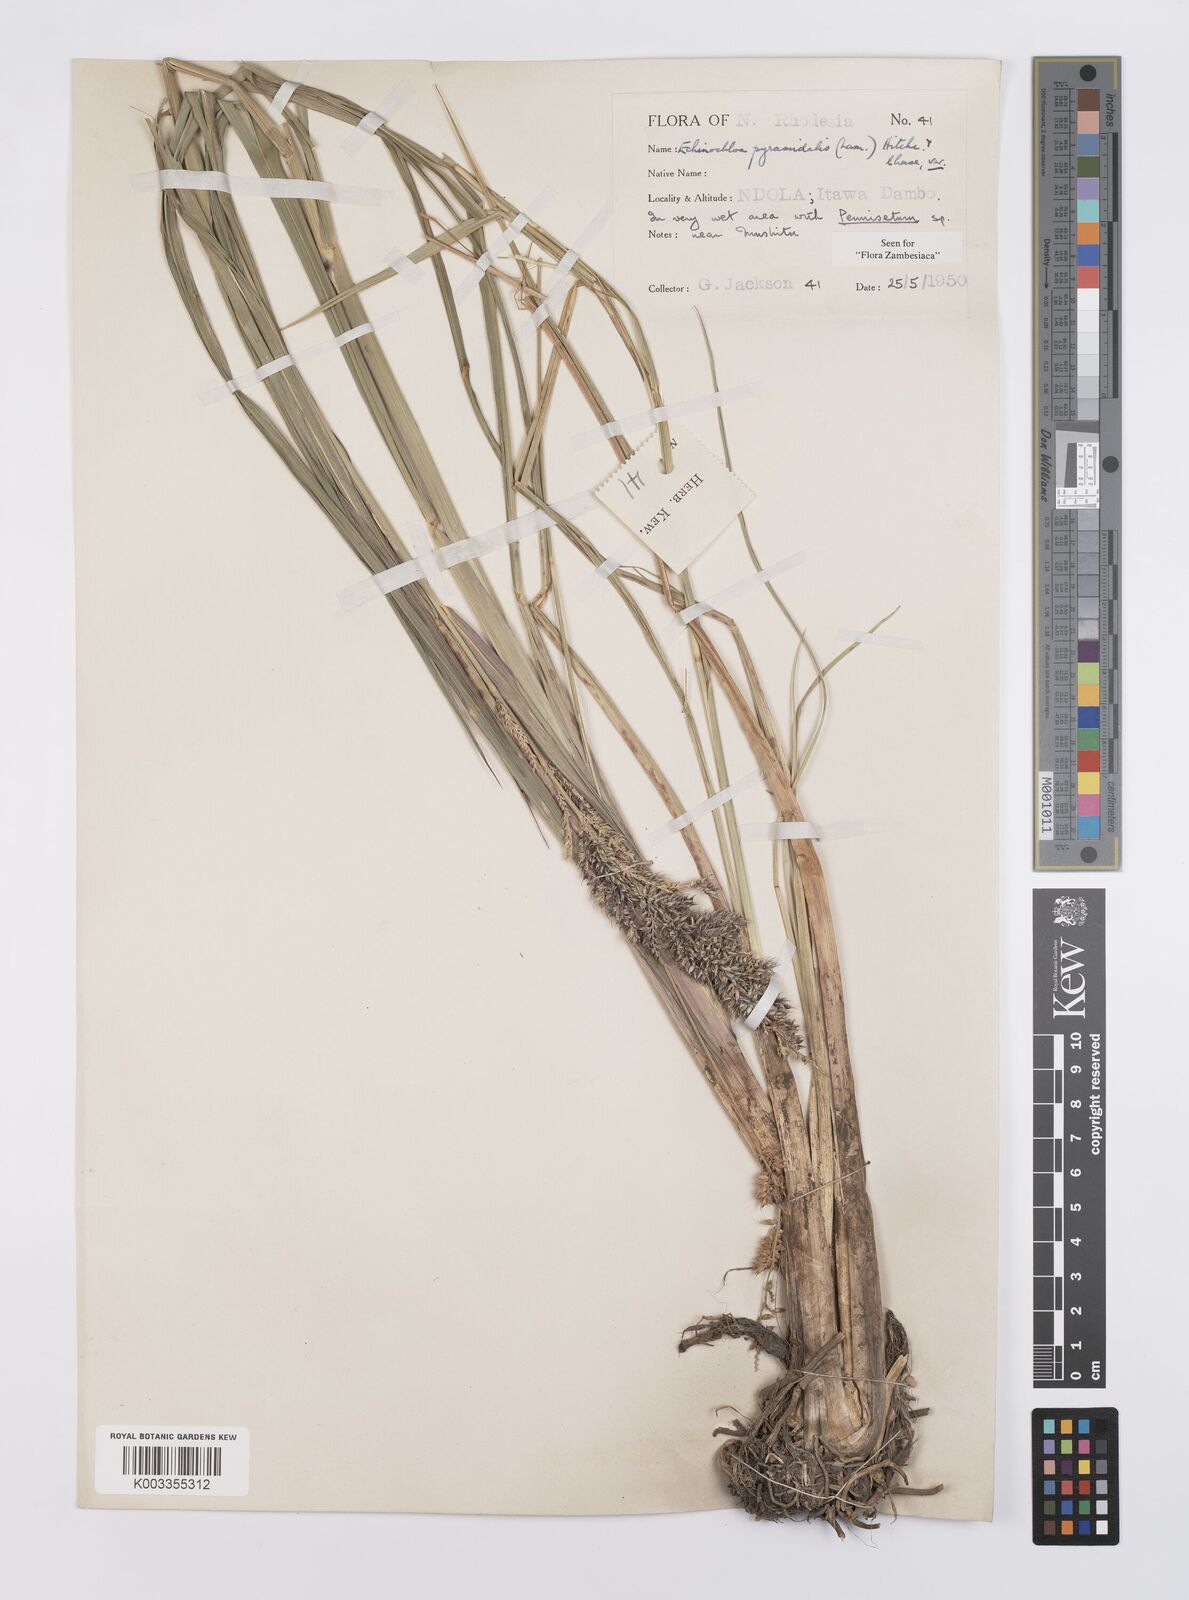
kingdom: Plantae
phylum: Tracheophyta
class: Liliopsida
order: Poales
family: Poaceae
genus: Echinochloa
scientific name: Echinochloa pyramidalis
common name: Antelope grass
